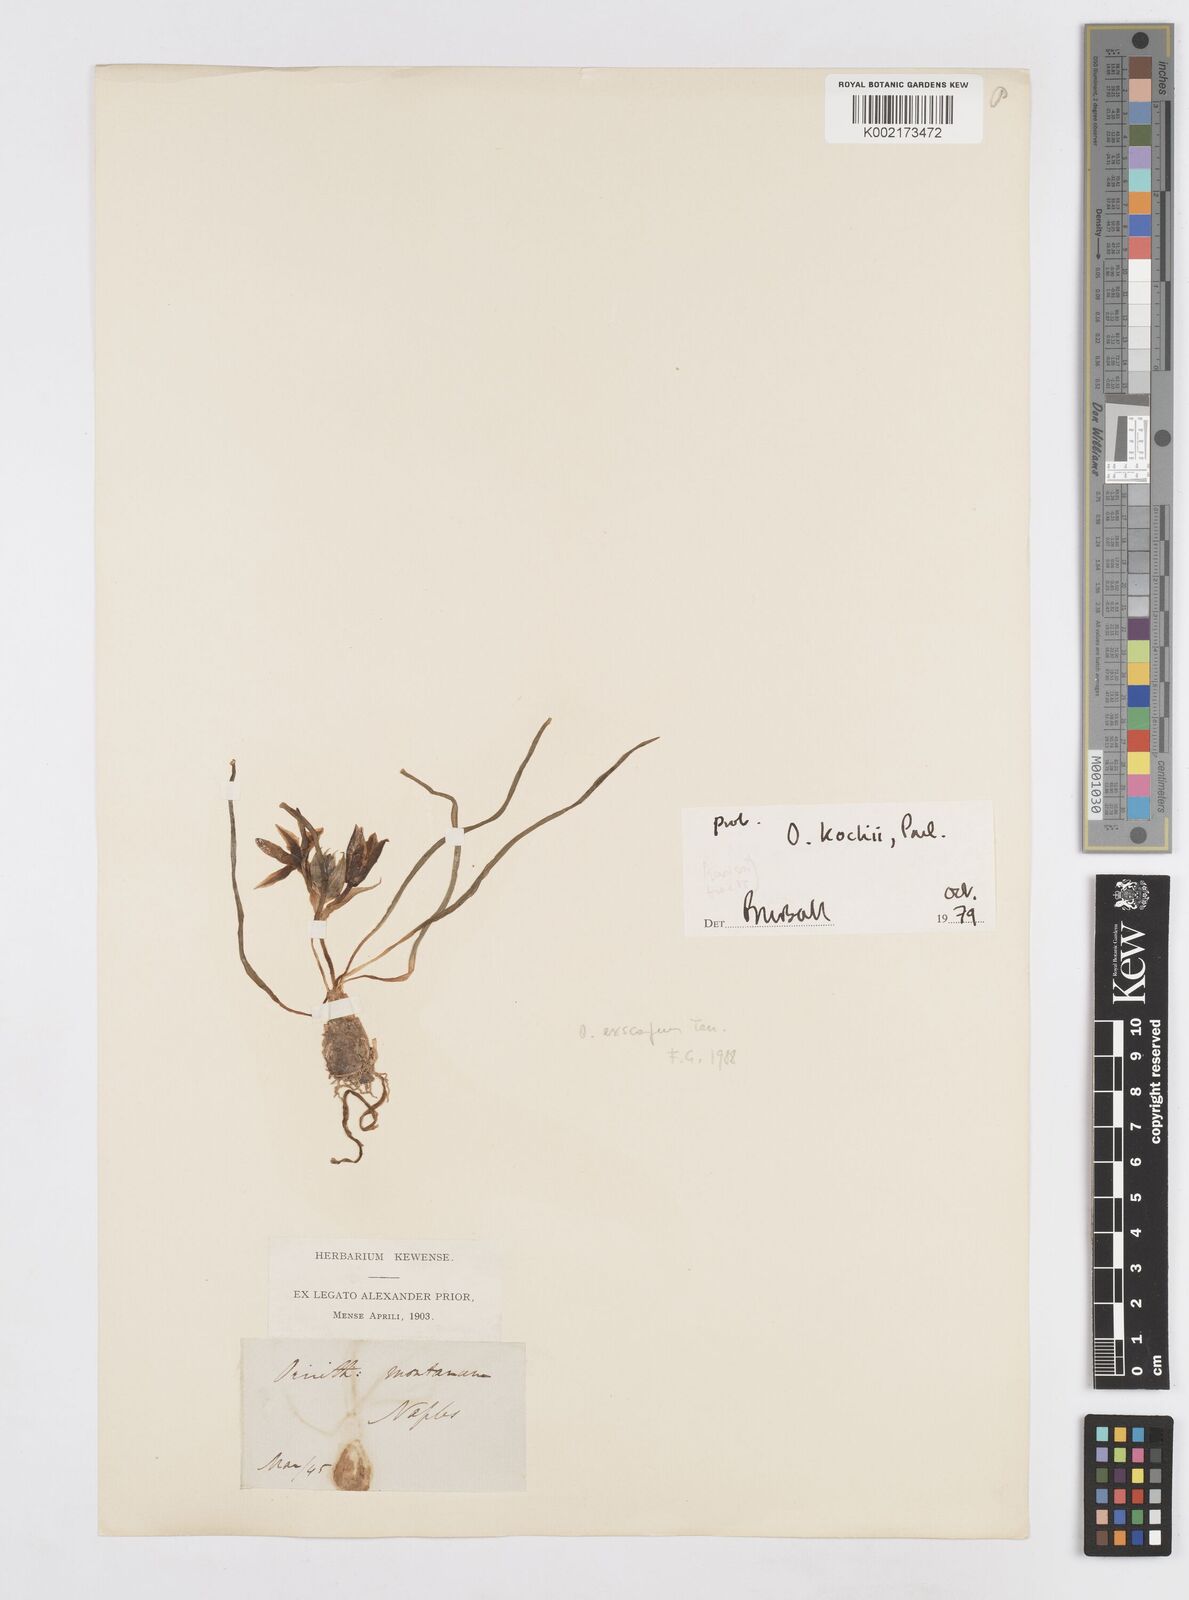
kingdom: Plantae
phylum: Tracheophyta
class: Liliopsida
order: Asparagales
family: Asparagaceae
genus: Ornithogalum
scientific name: Ornithogalum montanum
